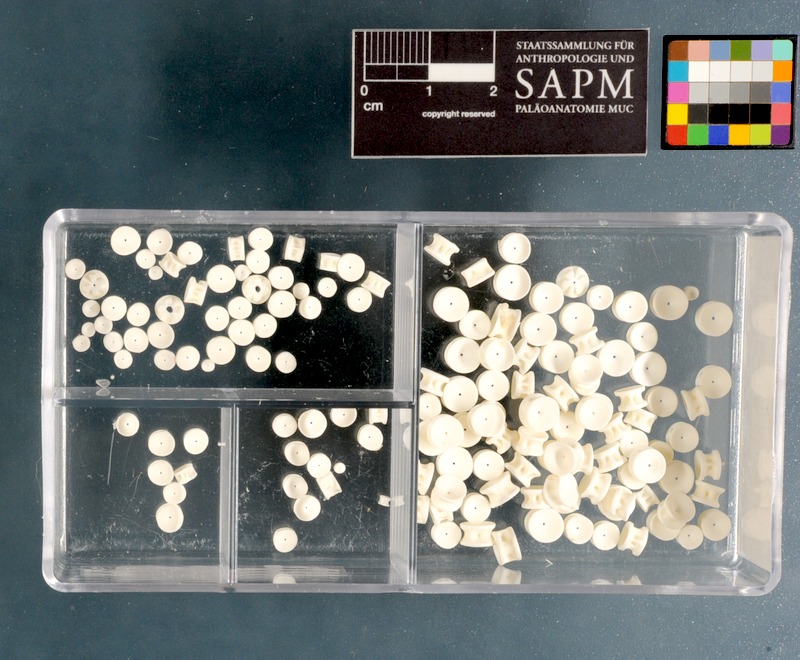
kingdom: Animalia
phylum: Chordata
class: Elasmobranchii
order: Rhinopristiformes
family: Rhinobatidae
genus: Acroteriobatus
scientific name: Acroteriobatus annulatus
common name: Lesser guitarfish
